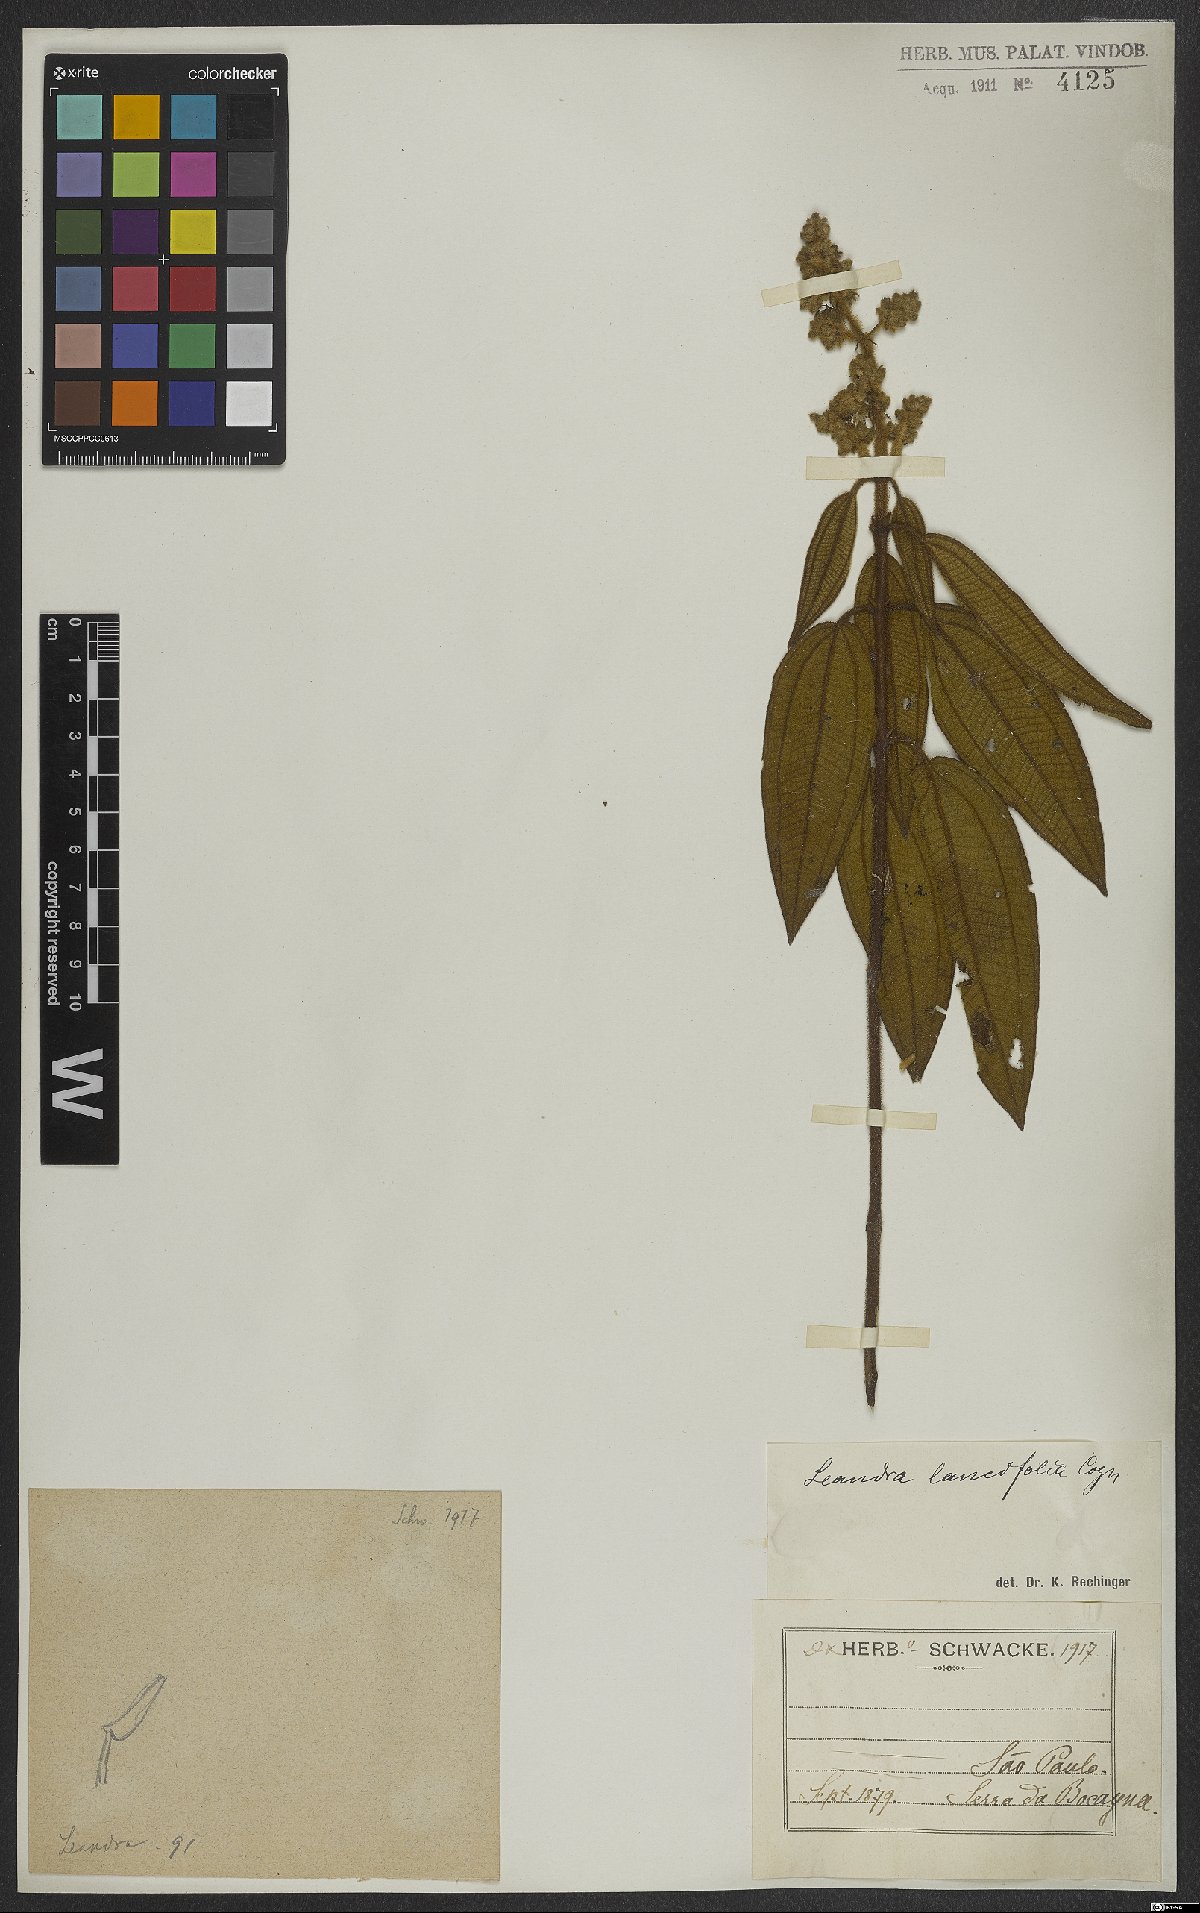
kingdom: Plantae
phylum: Tracheophyta
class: Magnoliopsida
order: Myrtales
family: Melastomataceae
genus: Miconia
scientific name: Miconia lealancifolia
